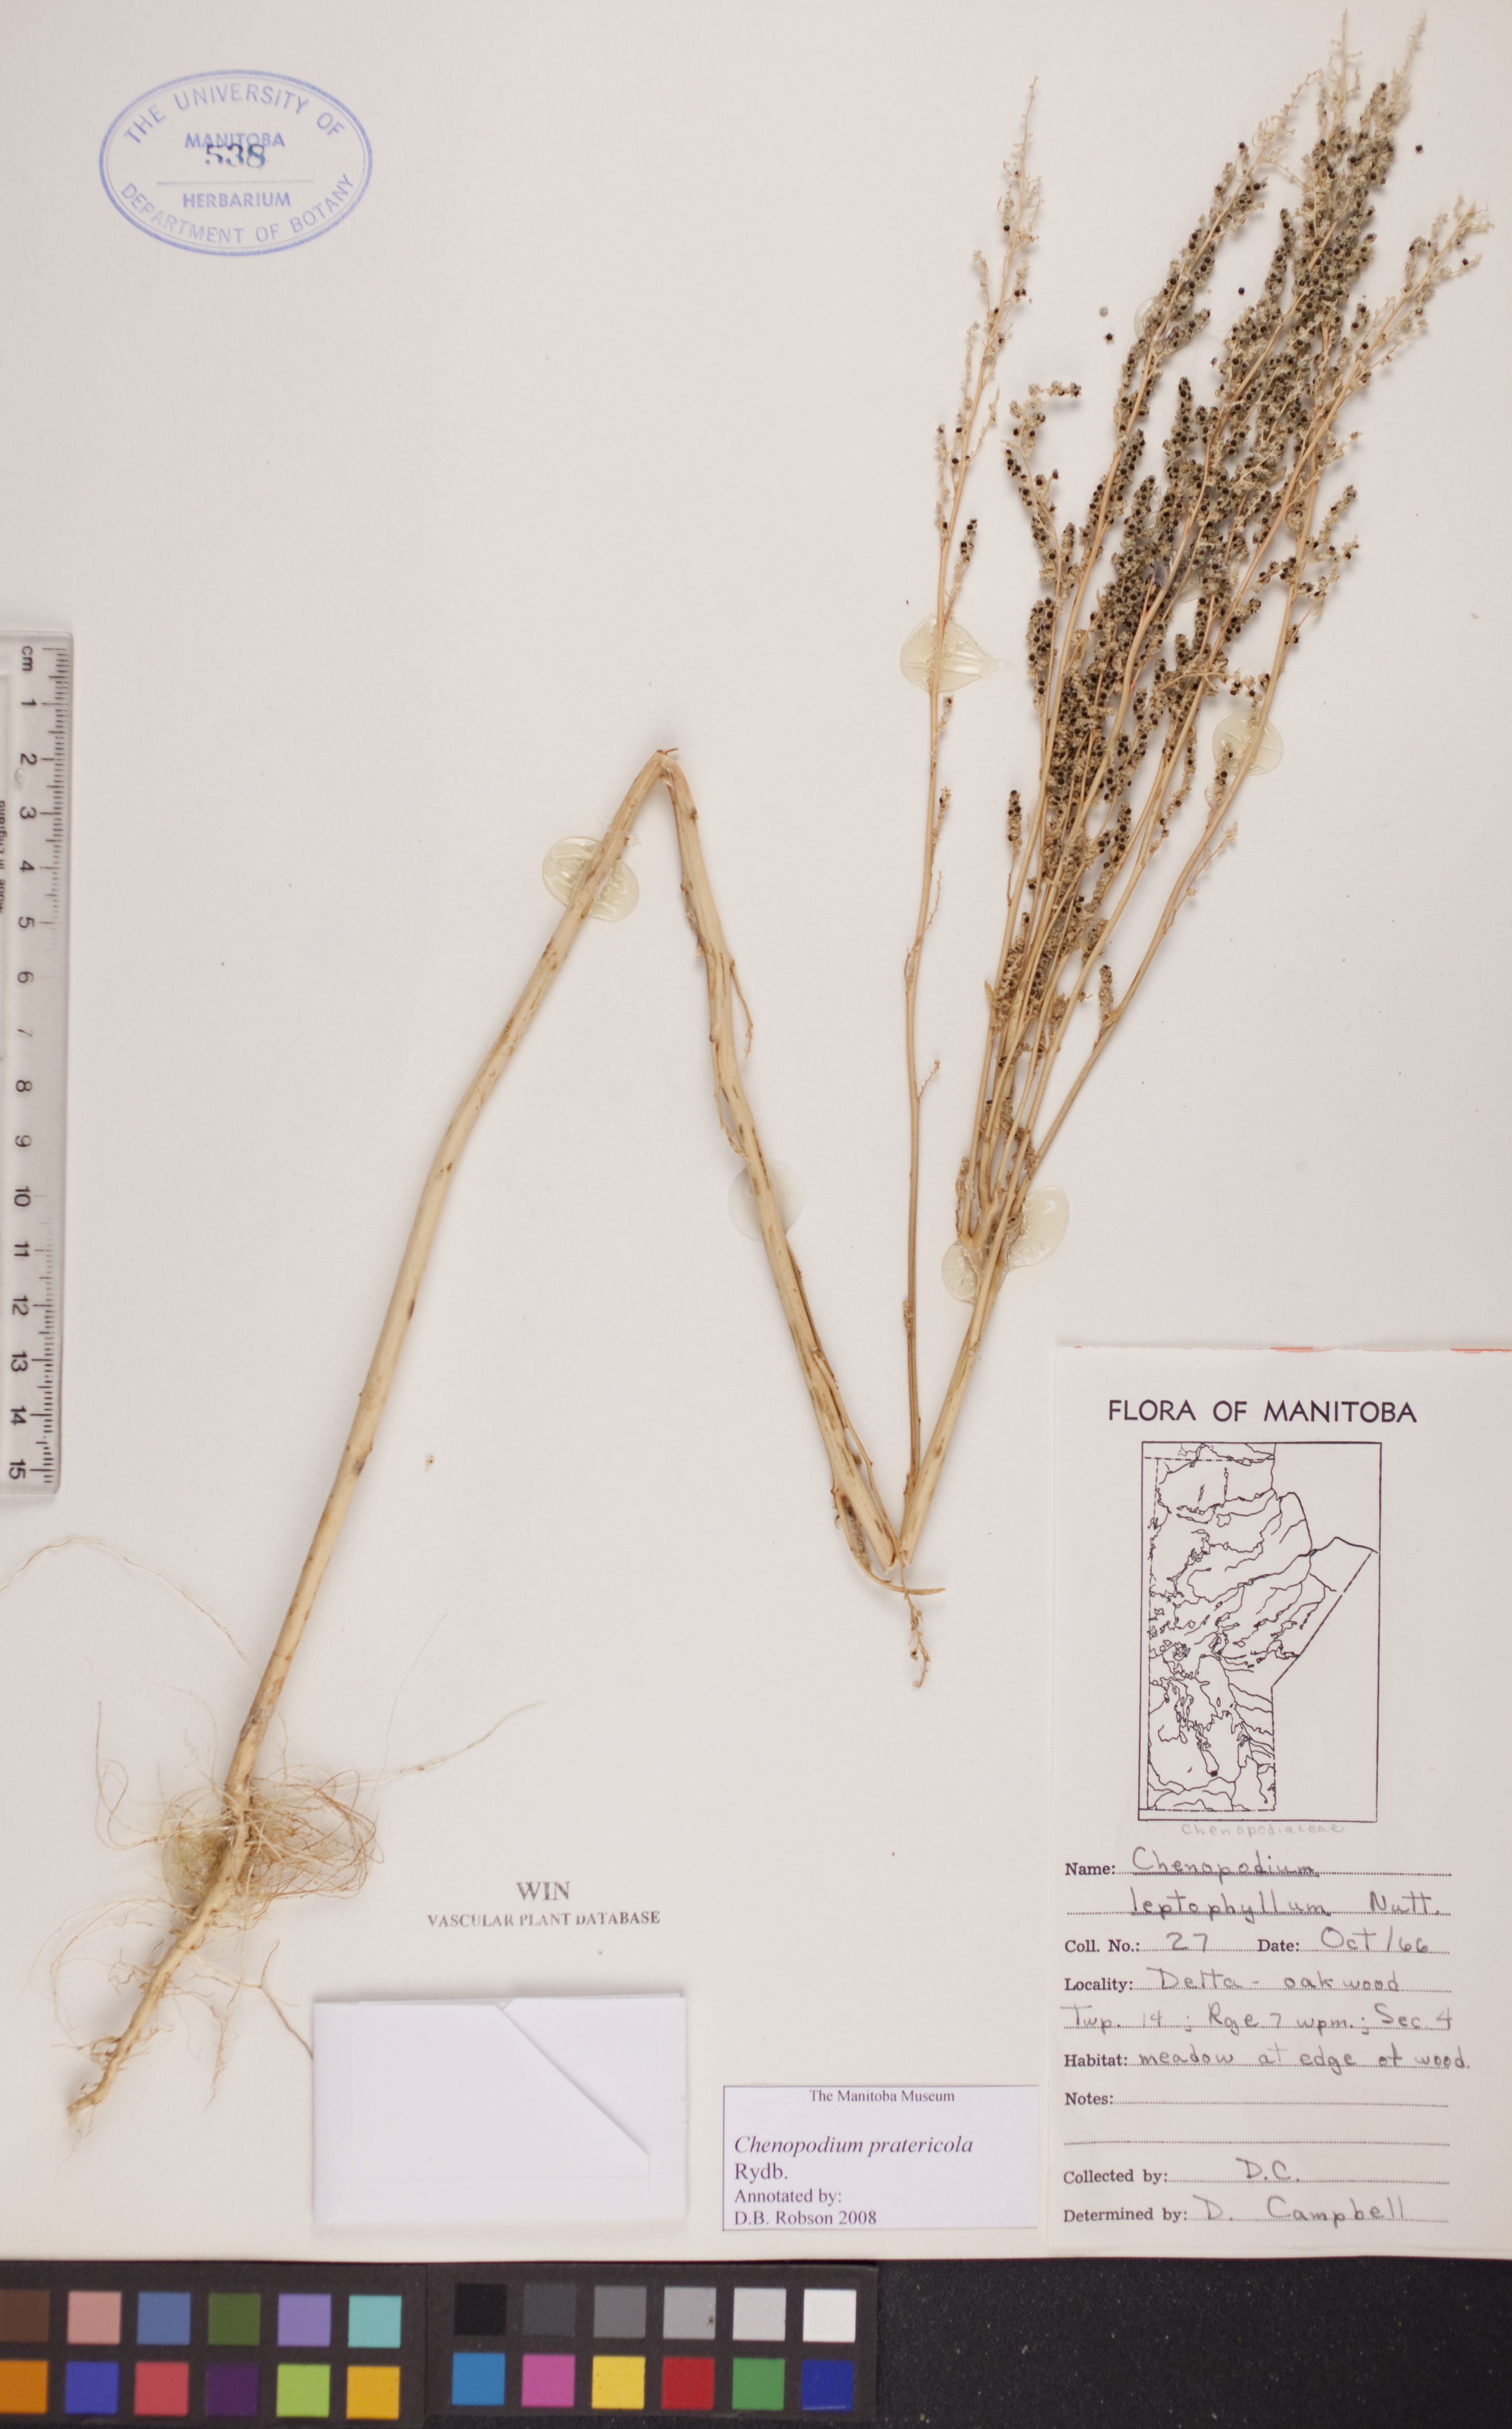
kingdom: Plantae
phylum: Tracheophyta
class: Magnoliopsida
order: Caryophyllales
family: Amaranthaceae
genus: Chenopodium
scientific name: Chenopodium pratericola
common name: Desert goosefoot
